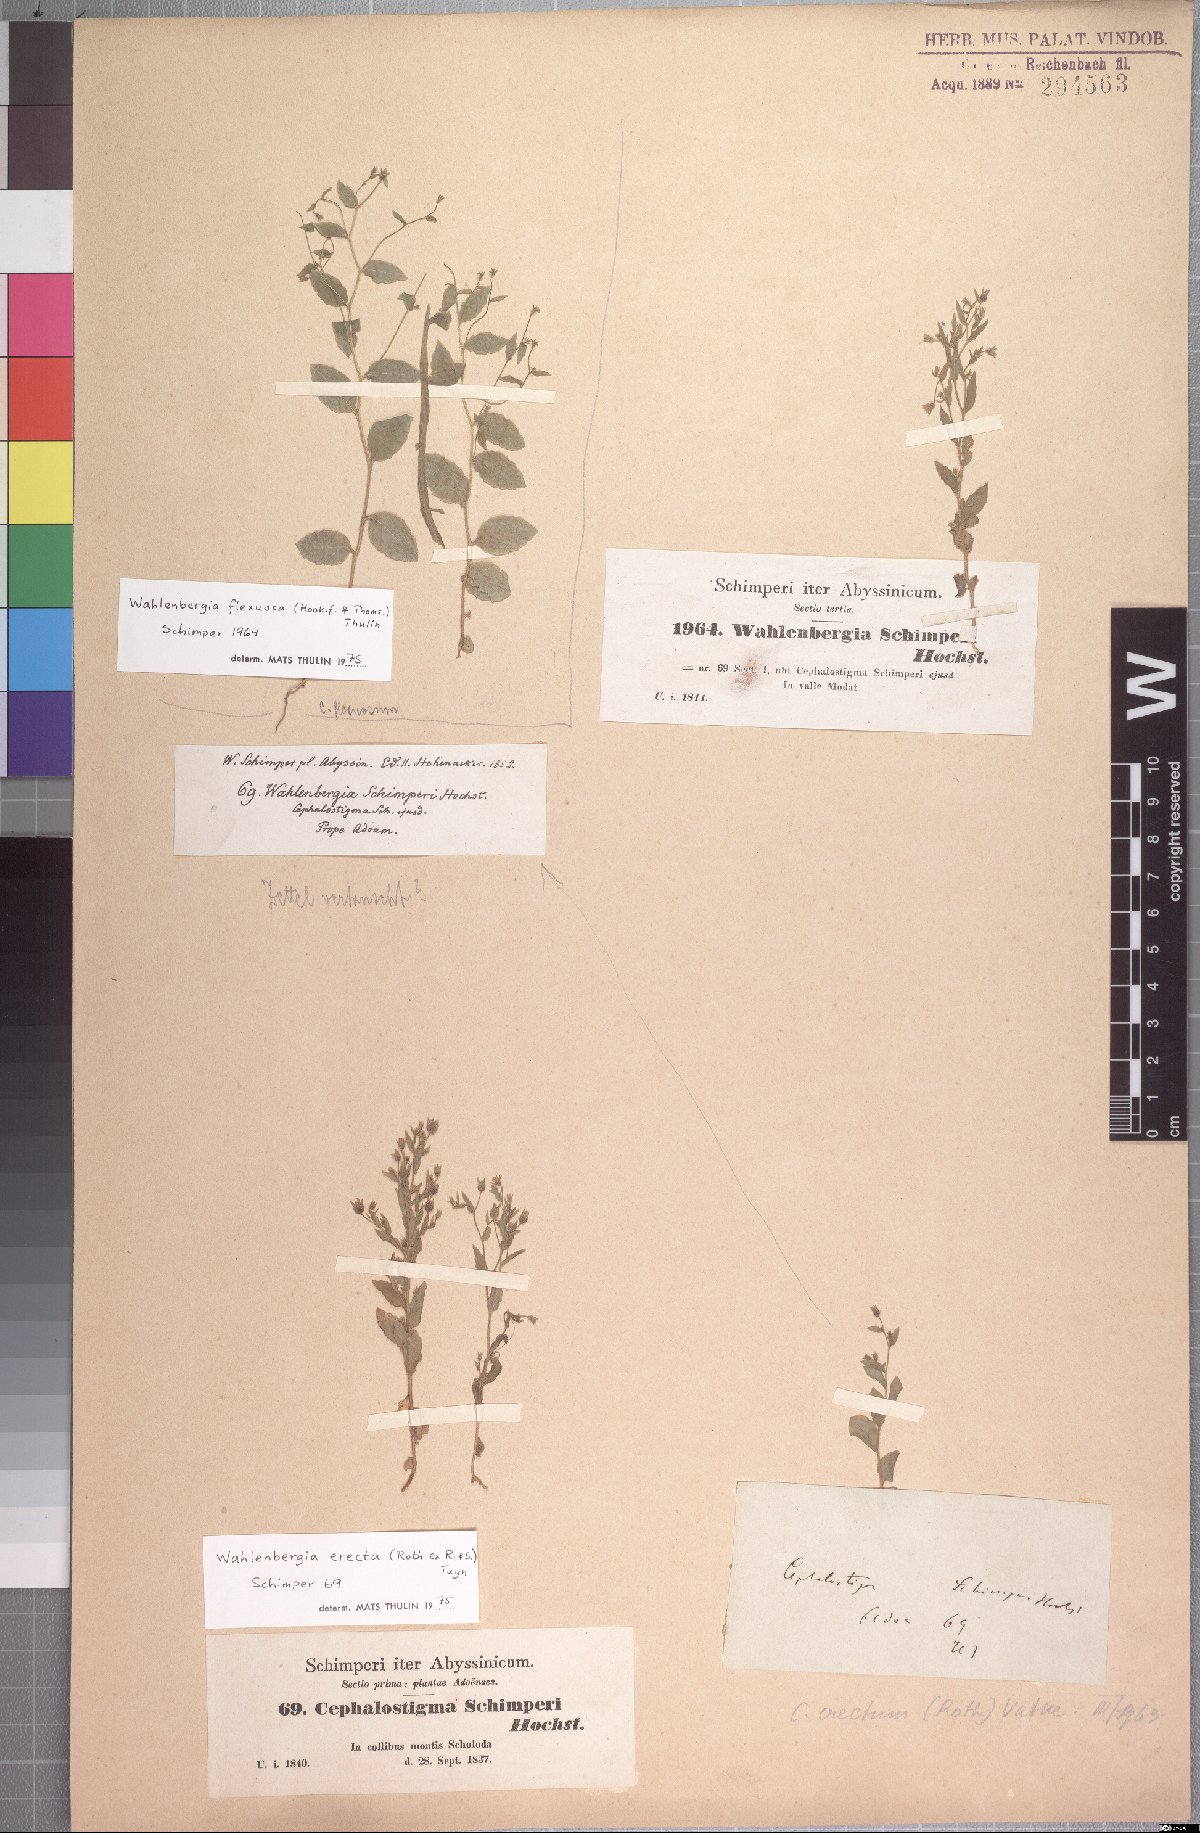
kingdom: Plantae
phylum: Tracheophyta
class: Magnoliopsida
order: Asterales
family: Campanulaceae
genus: Wahlenbergia
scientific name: Wahlenbergia erecta
